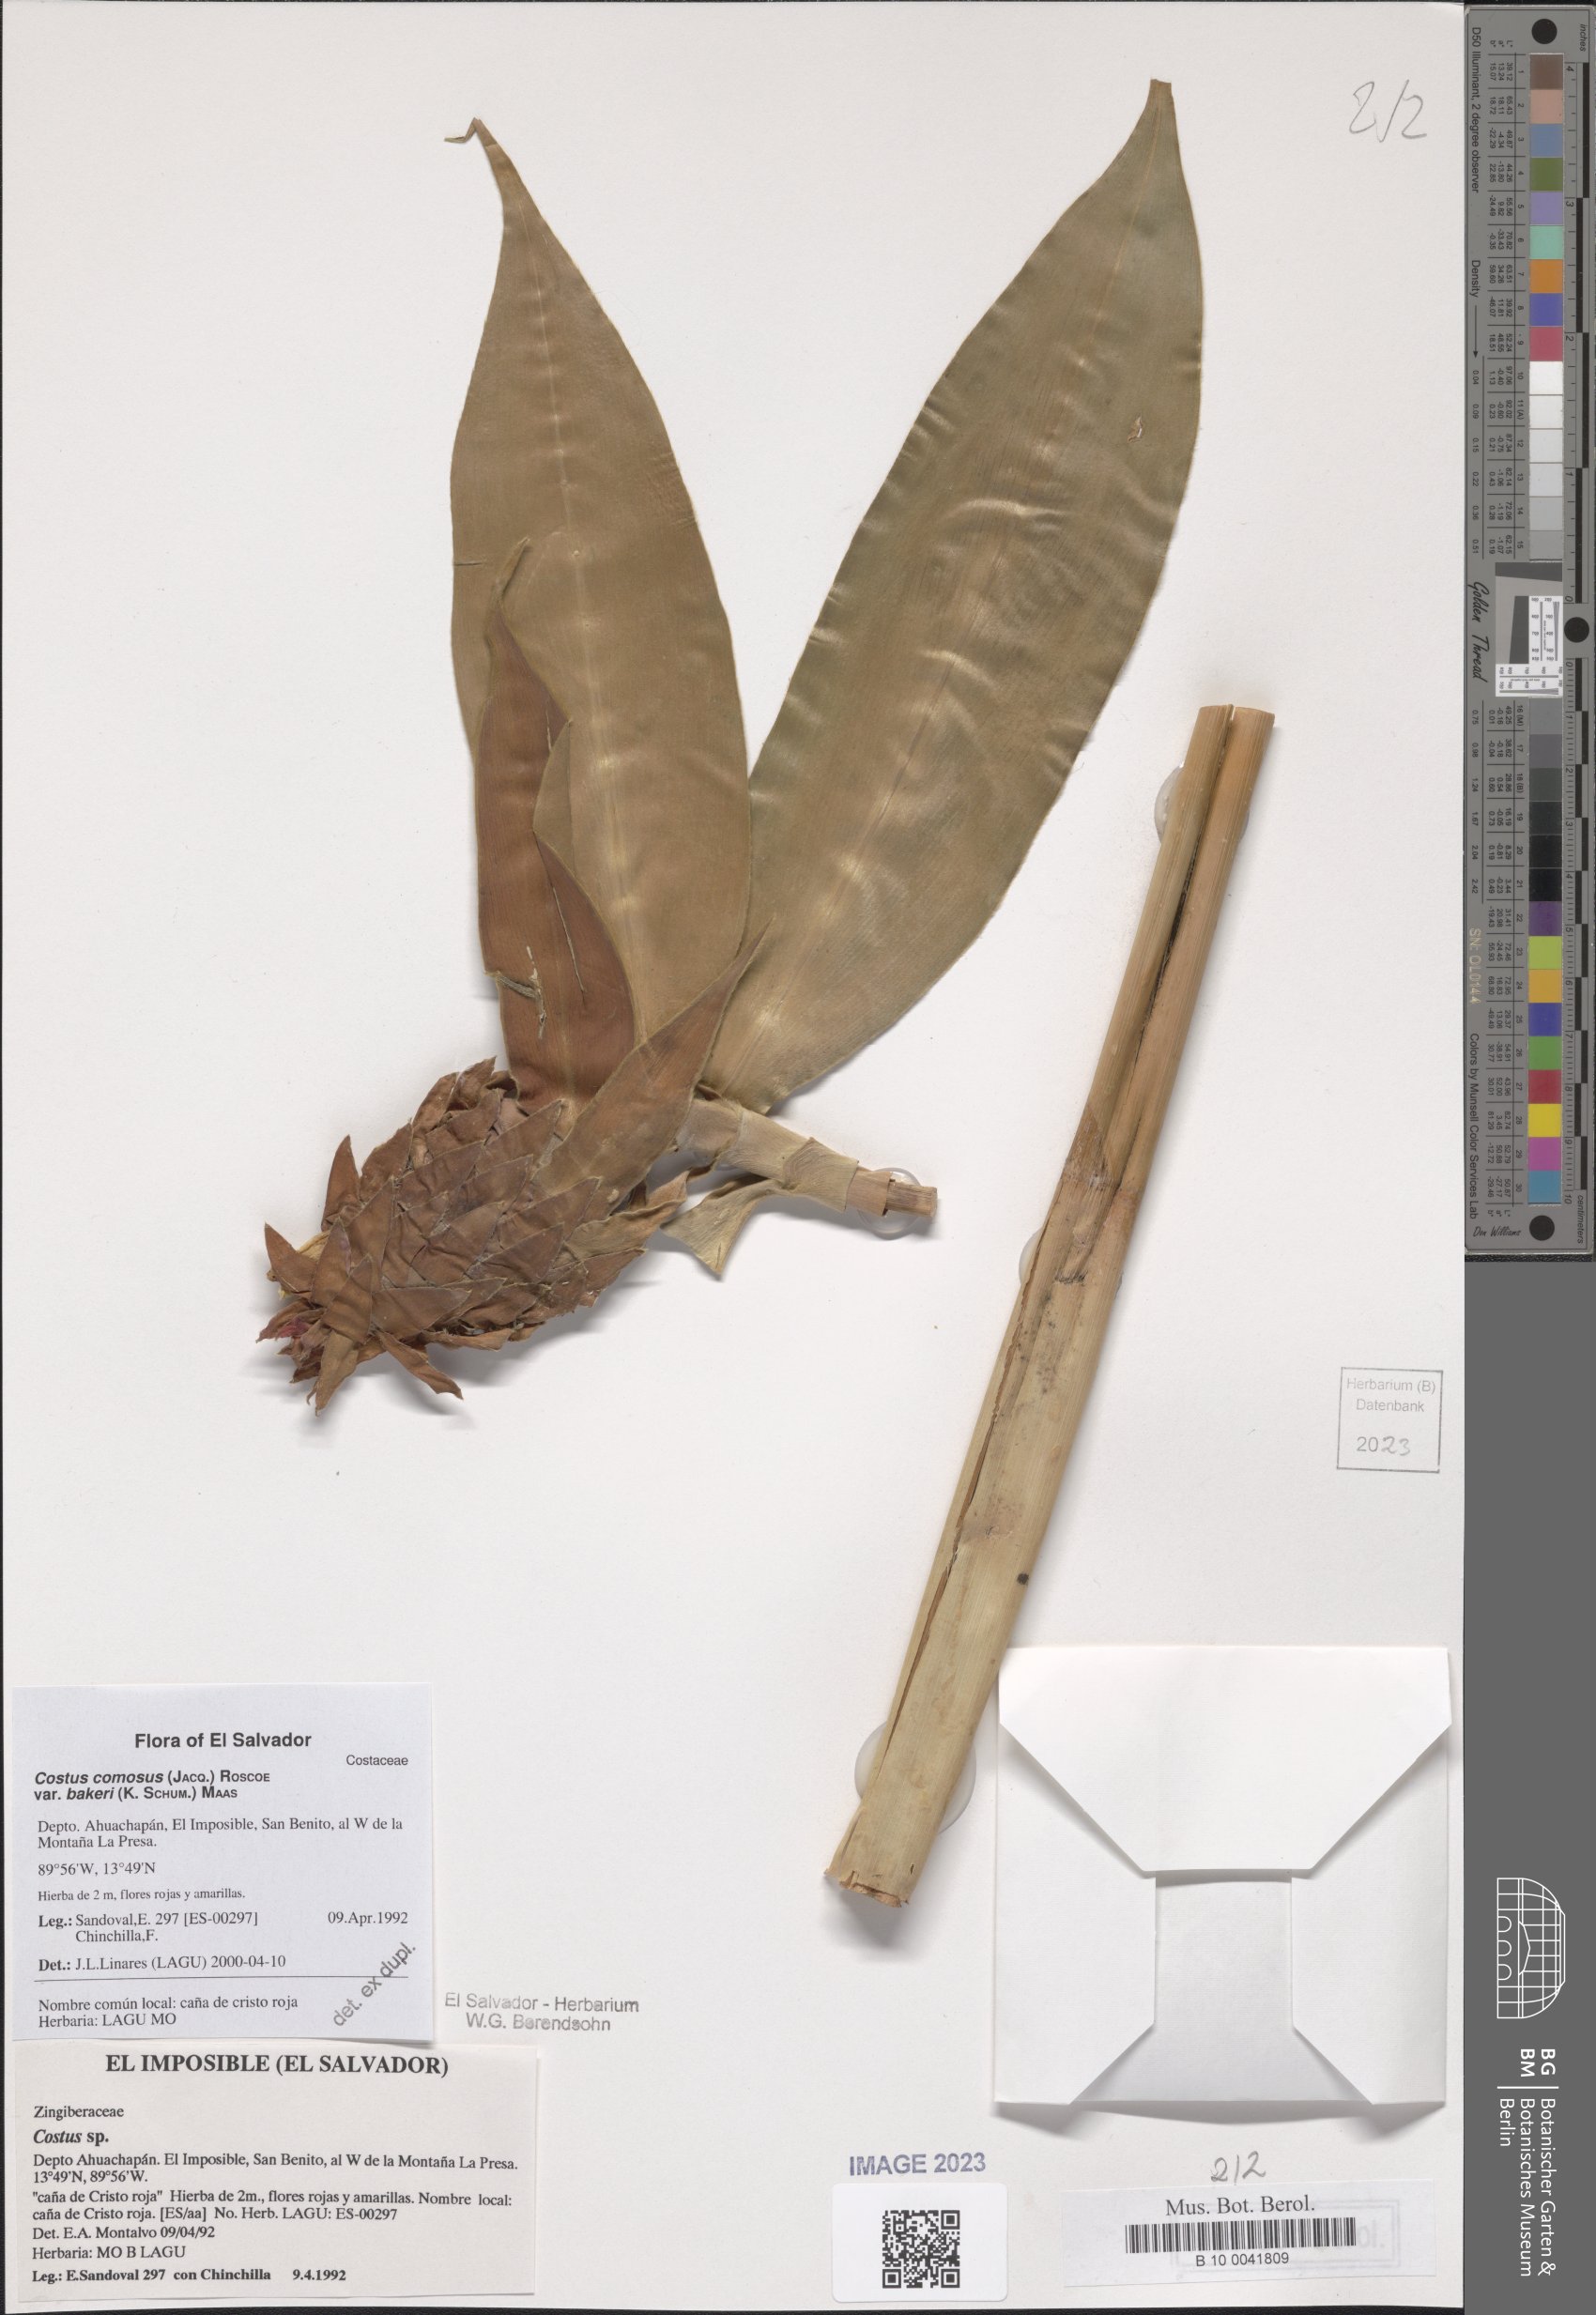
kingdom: Plantae
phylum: Tracheophyta
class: Liliopsida
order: Zingiberales
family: Costaceae
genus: Costus
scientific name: Costus comosus
